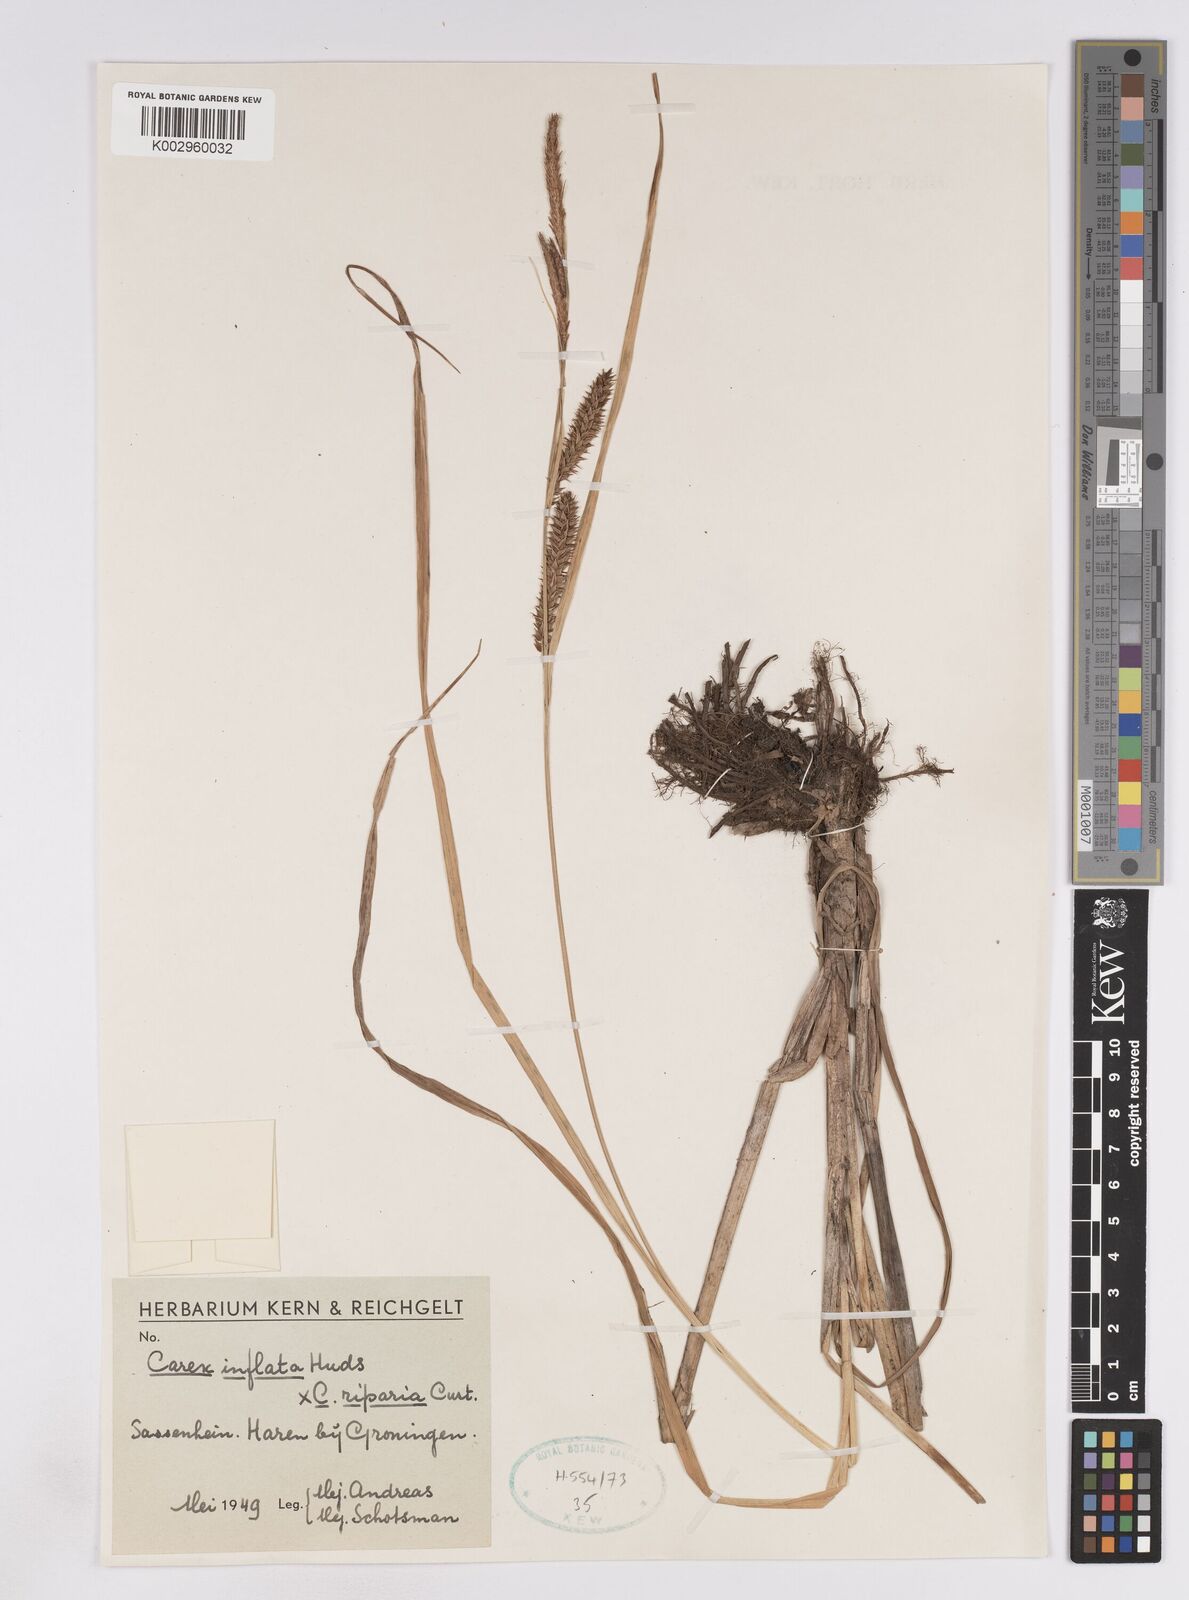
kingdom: Plantae
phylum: Tracheophyta
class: Liliopsida
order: Poales
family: Cyperaceae
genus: Carex
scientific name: Carex
